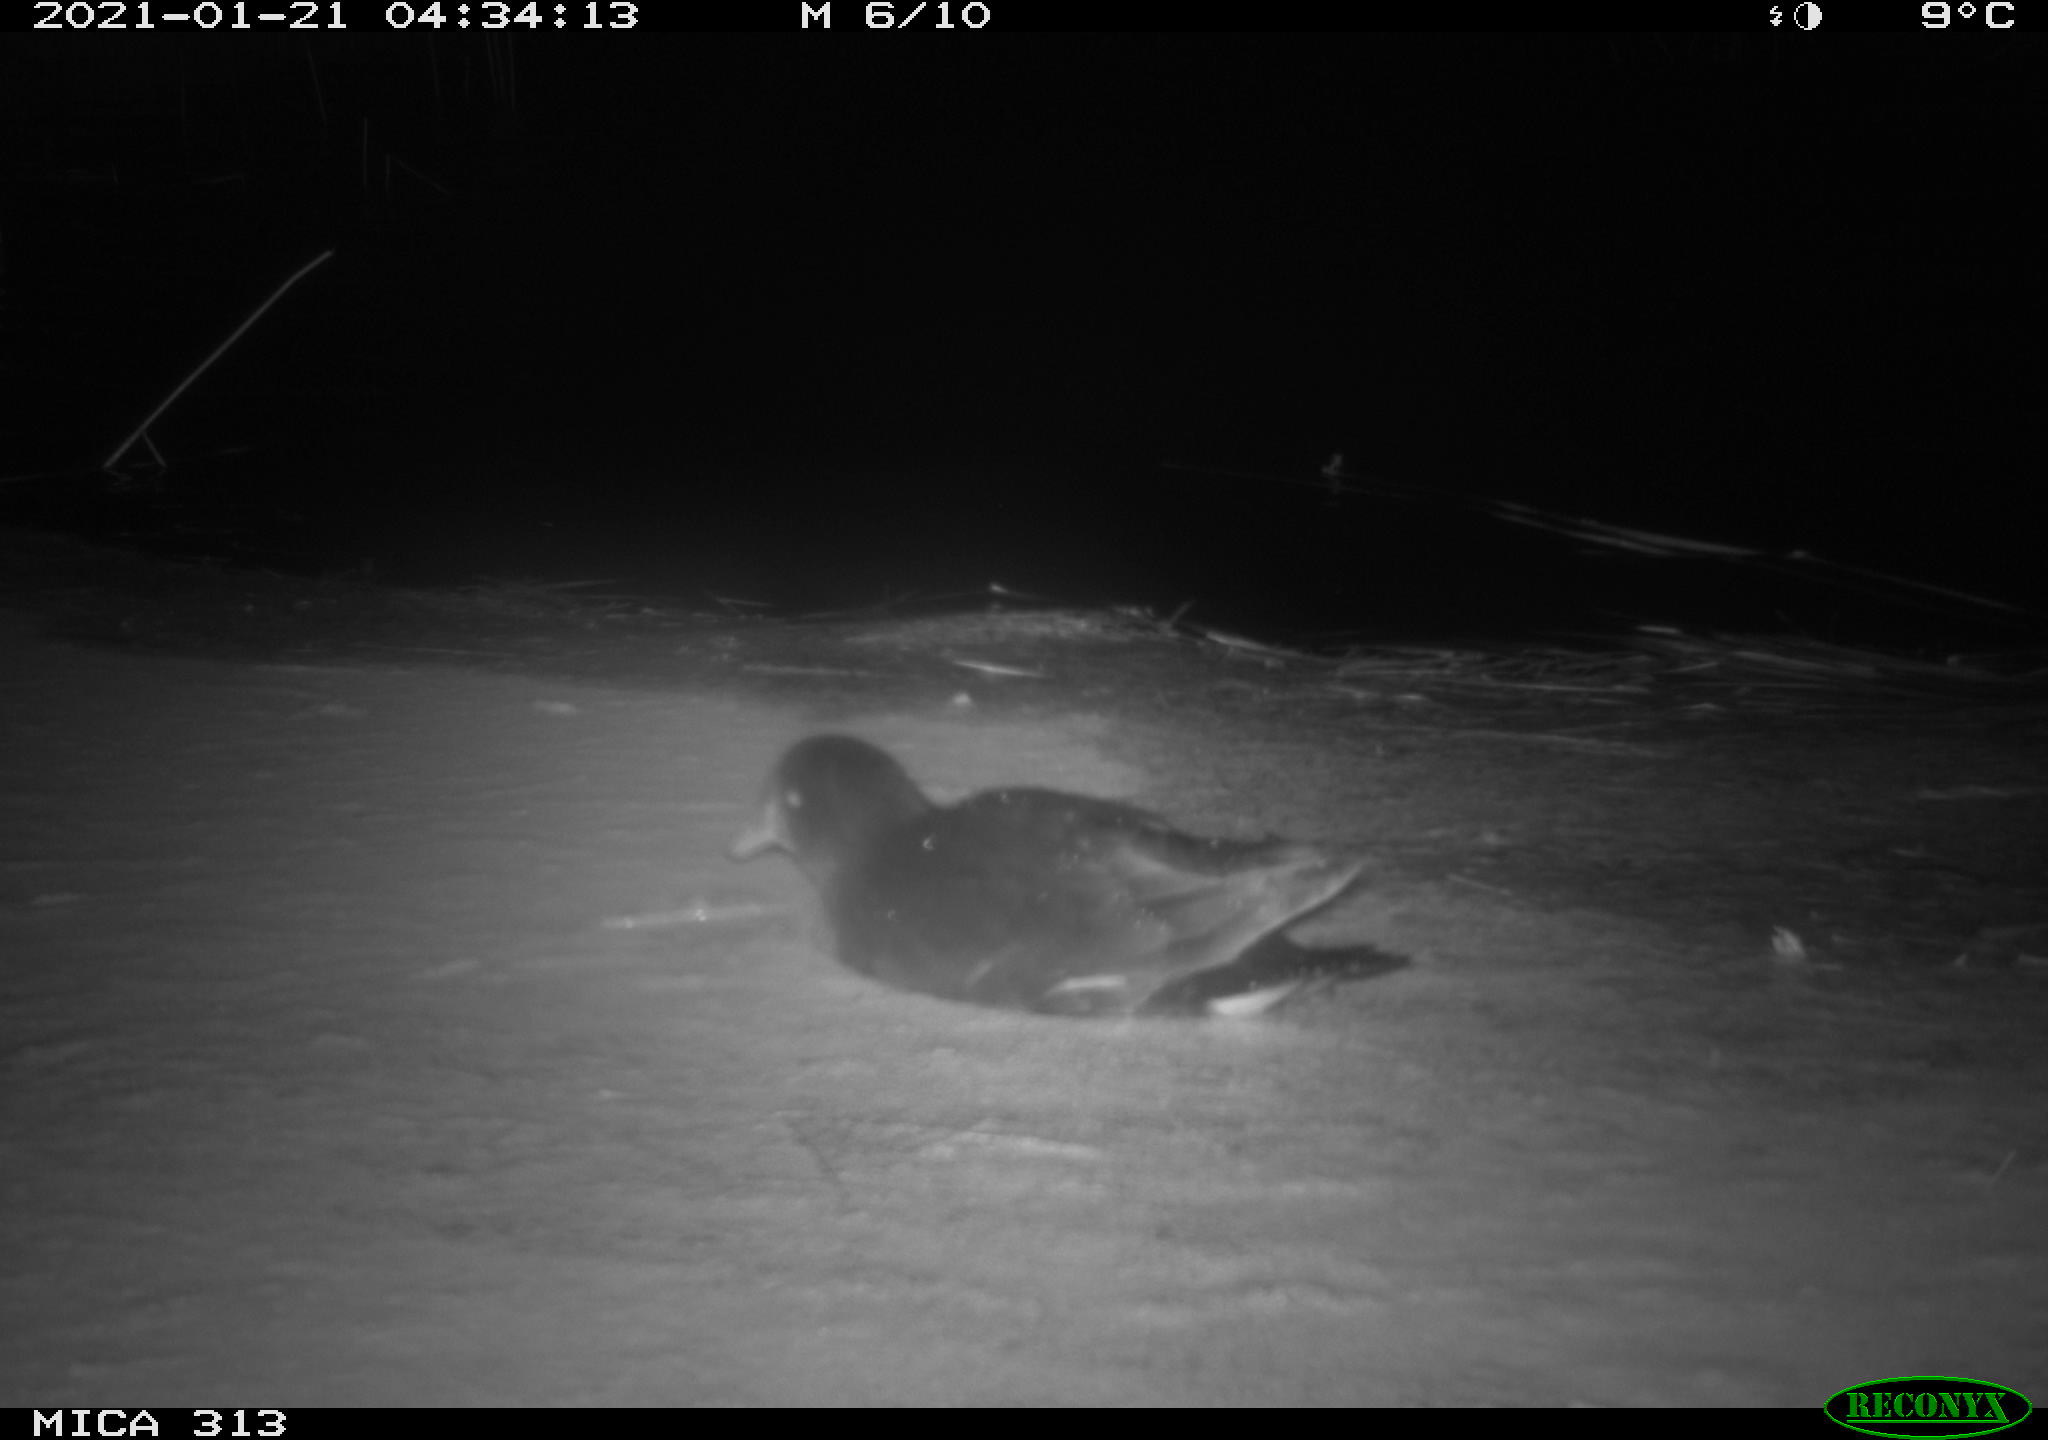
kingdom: Animalia
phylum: Chordata
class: Aves
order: Gruiformes
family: Rallidae
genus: Fulica
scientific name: Fulica atra
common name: Eurasian coot
